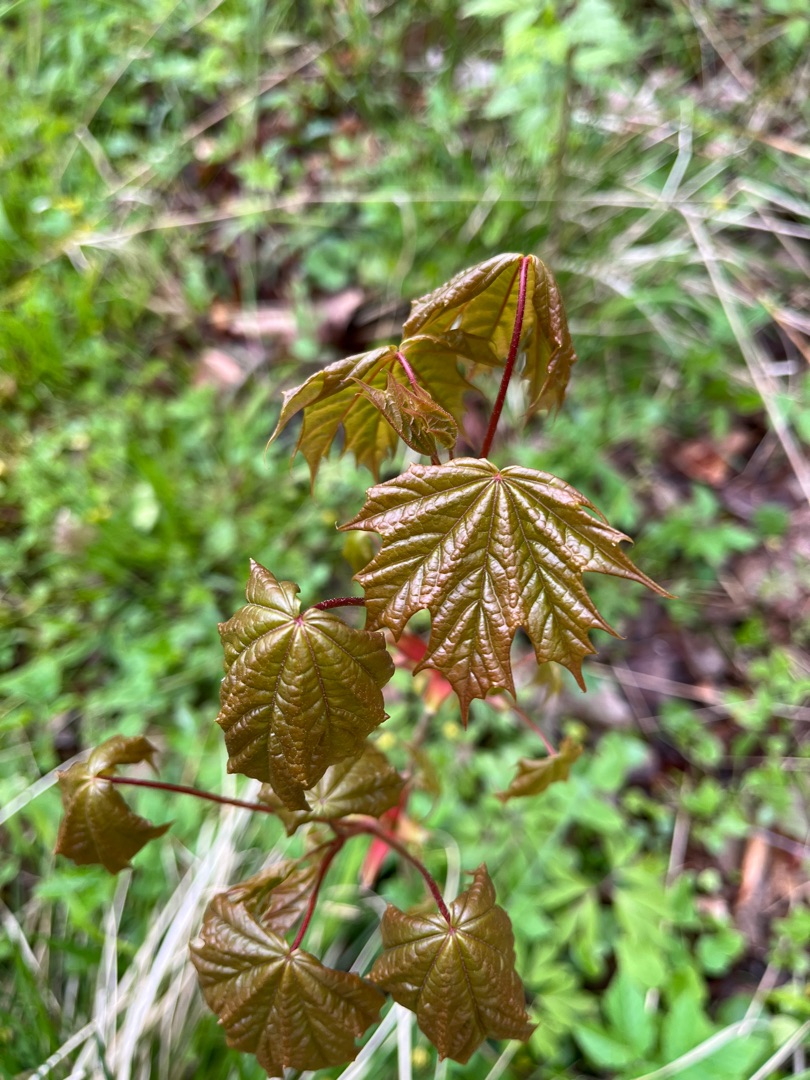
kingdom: Plantae
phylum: Tracheophyta
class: Magnoliopsida
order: Sapindales
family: Sapindaceae
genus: Acer
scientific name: Acer platanoides
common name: Spids-løn
